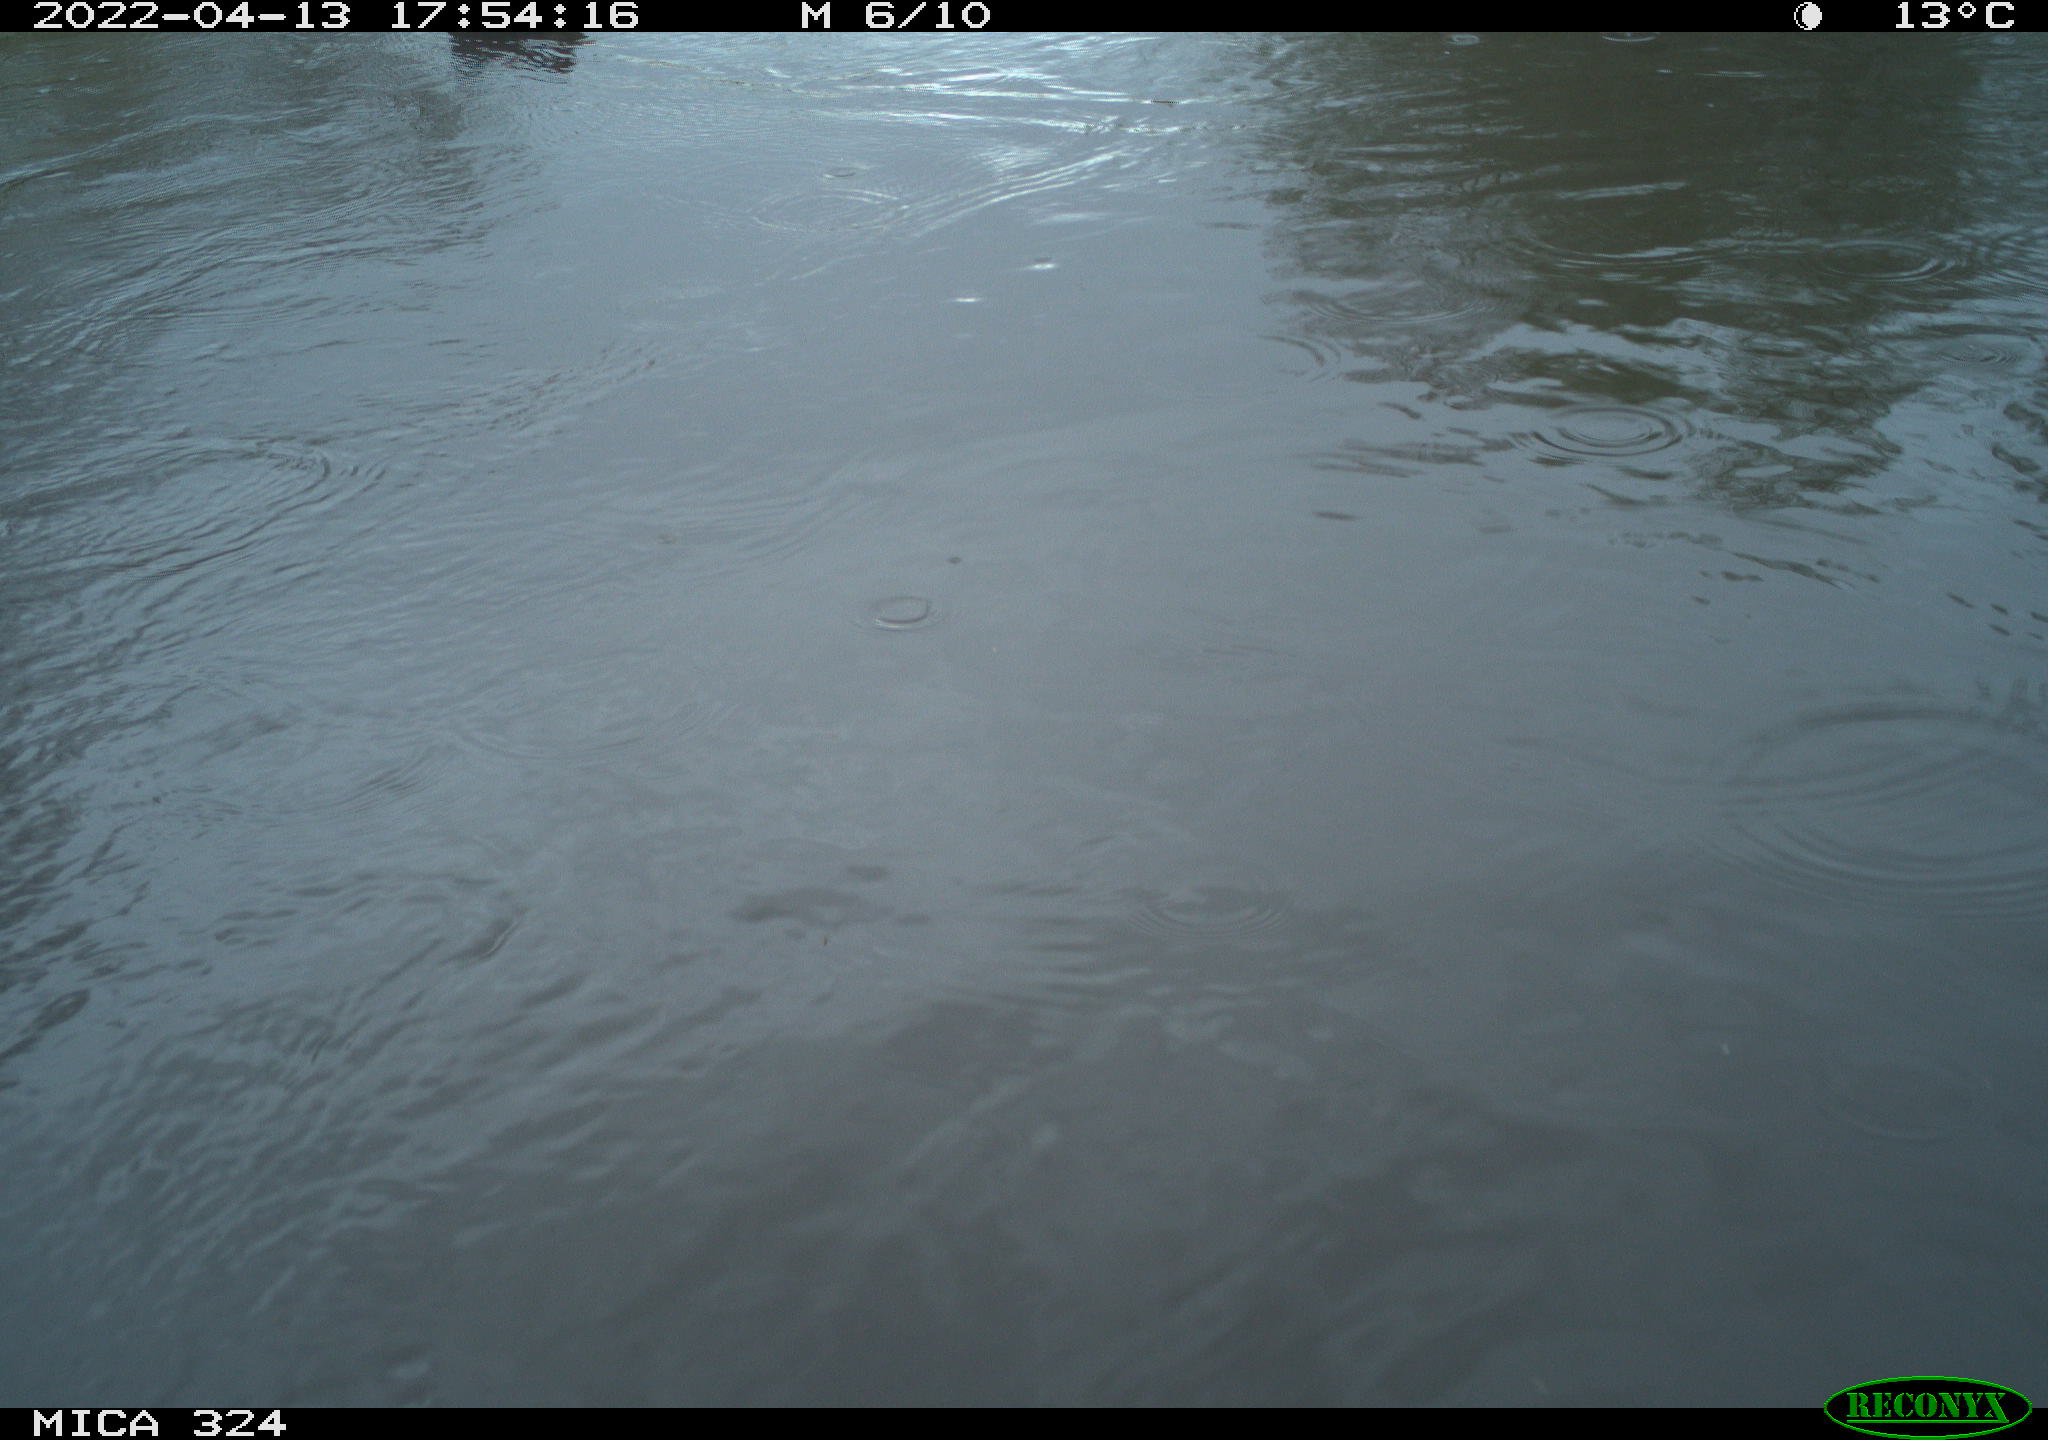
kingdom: Animalia
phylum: Chordata
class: Aves
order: Gruiformes
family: Rallidae
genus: Gallinula
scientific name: Gallinula chloropus
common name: Common moorhen
